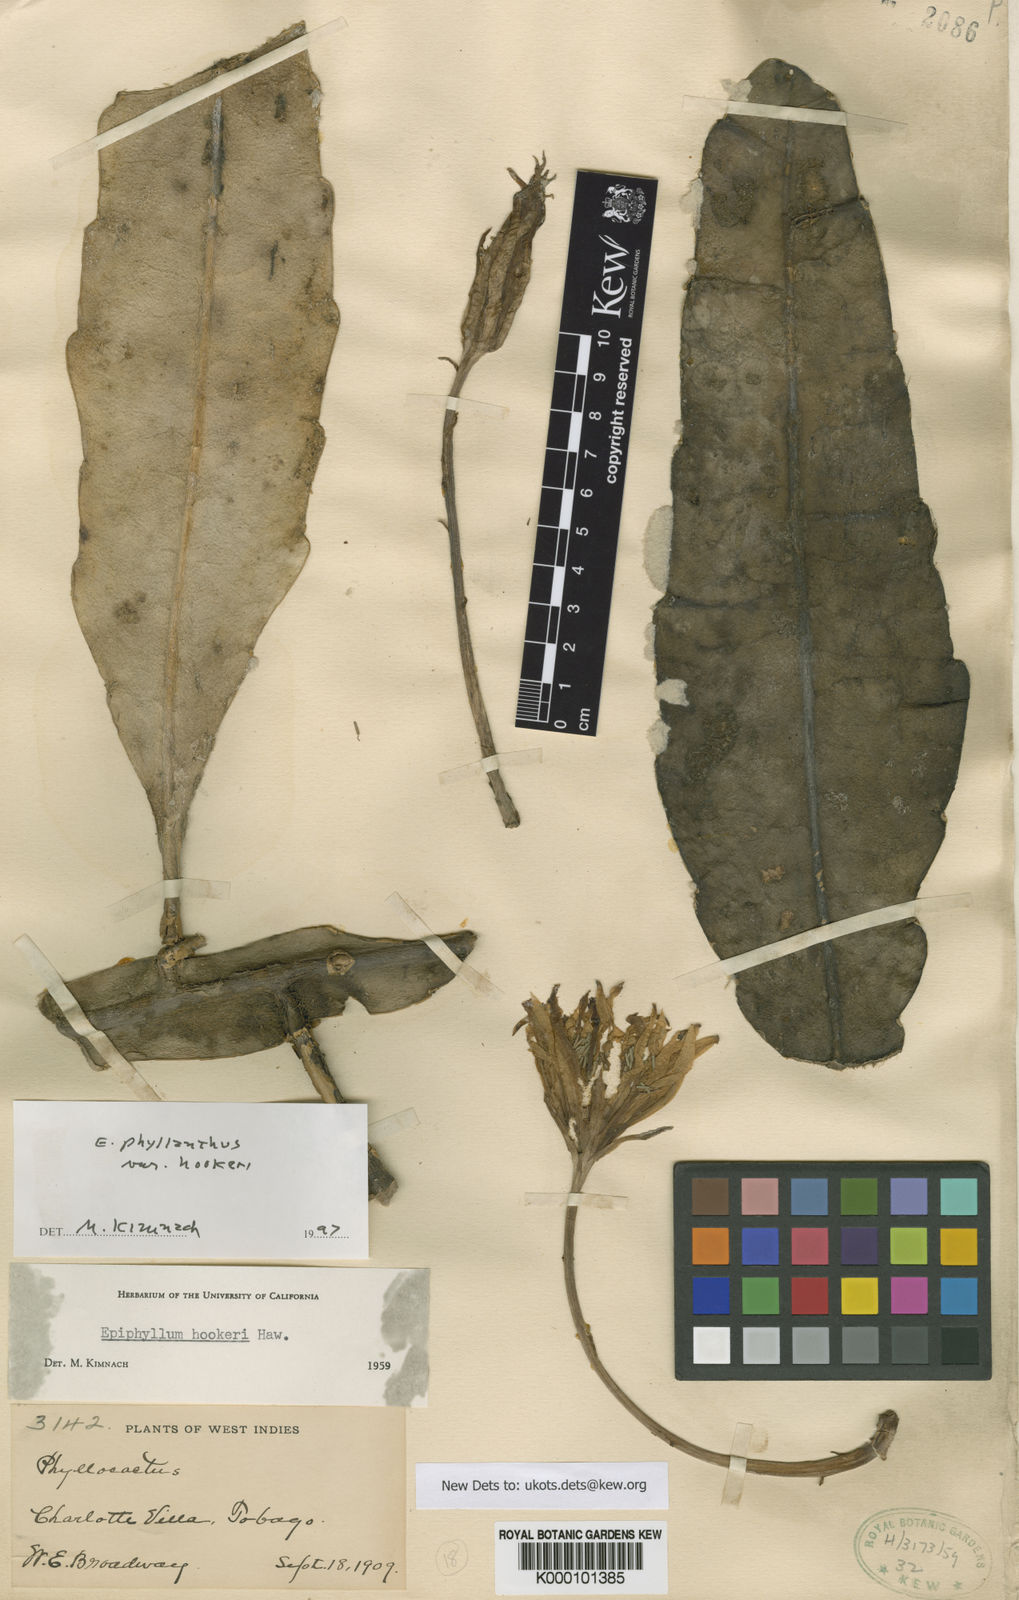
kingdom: Plantae
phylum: Tracheophyta
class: Magnoliopsida
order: Caryophyllales
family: Cactaceae
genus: Epiphyllum
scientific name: Epiphyllum phyllanthus
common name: Climbing cactus
